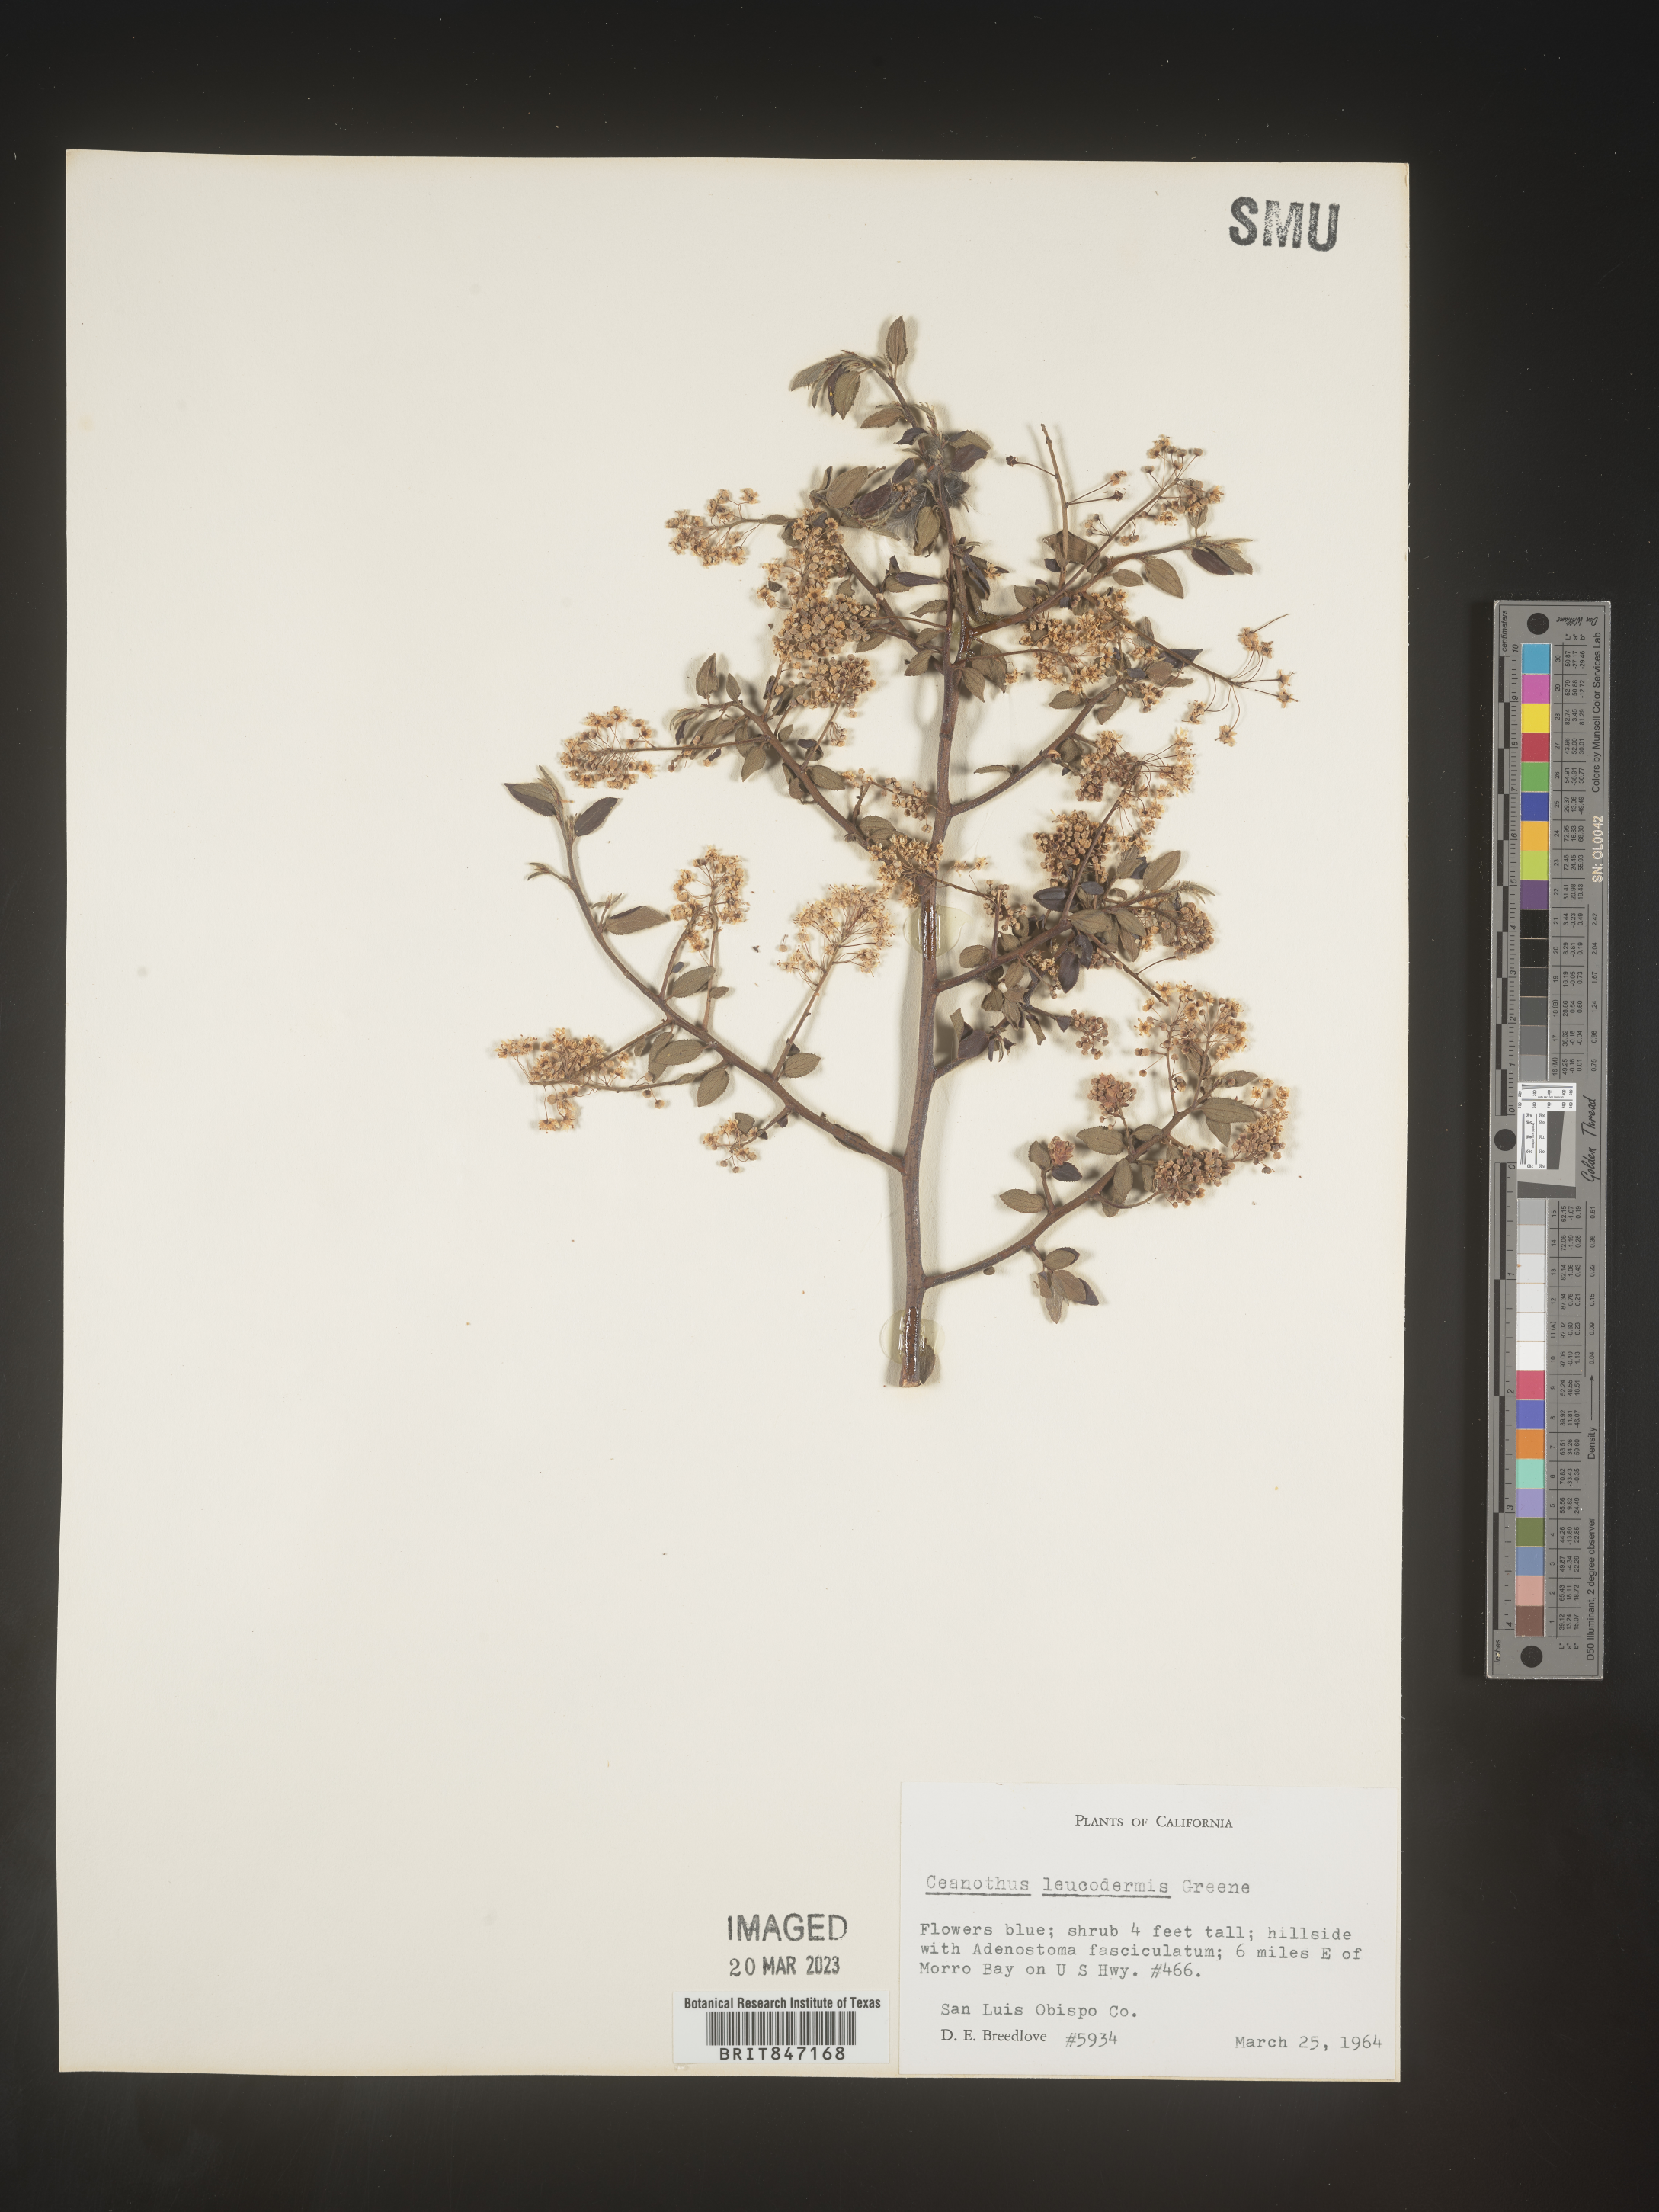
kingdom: Plantae
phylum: Tracheophyta
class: Magnoliopsida
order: Rosales
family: Rhamnaceae
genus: Ceanothus
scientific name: Ceanothus
